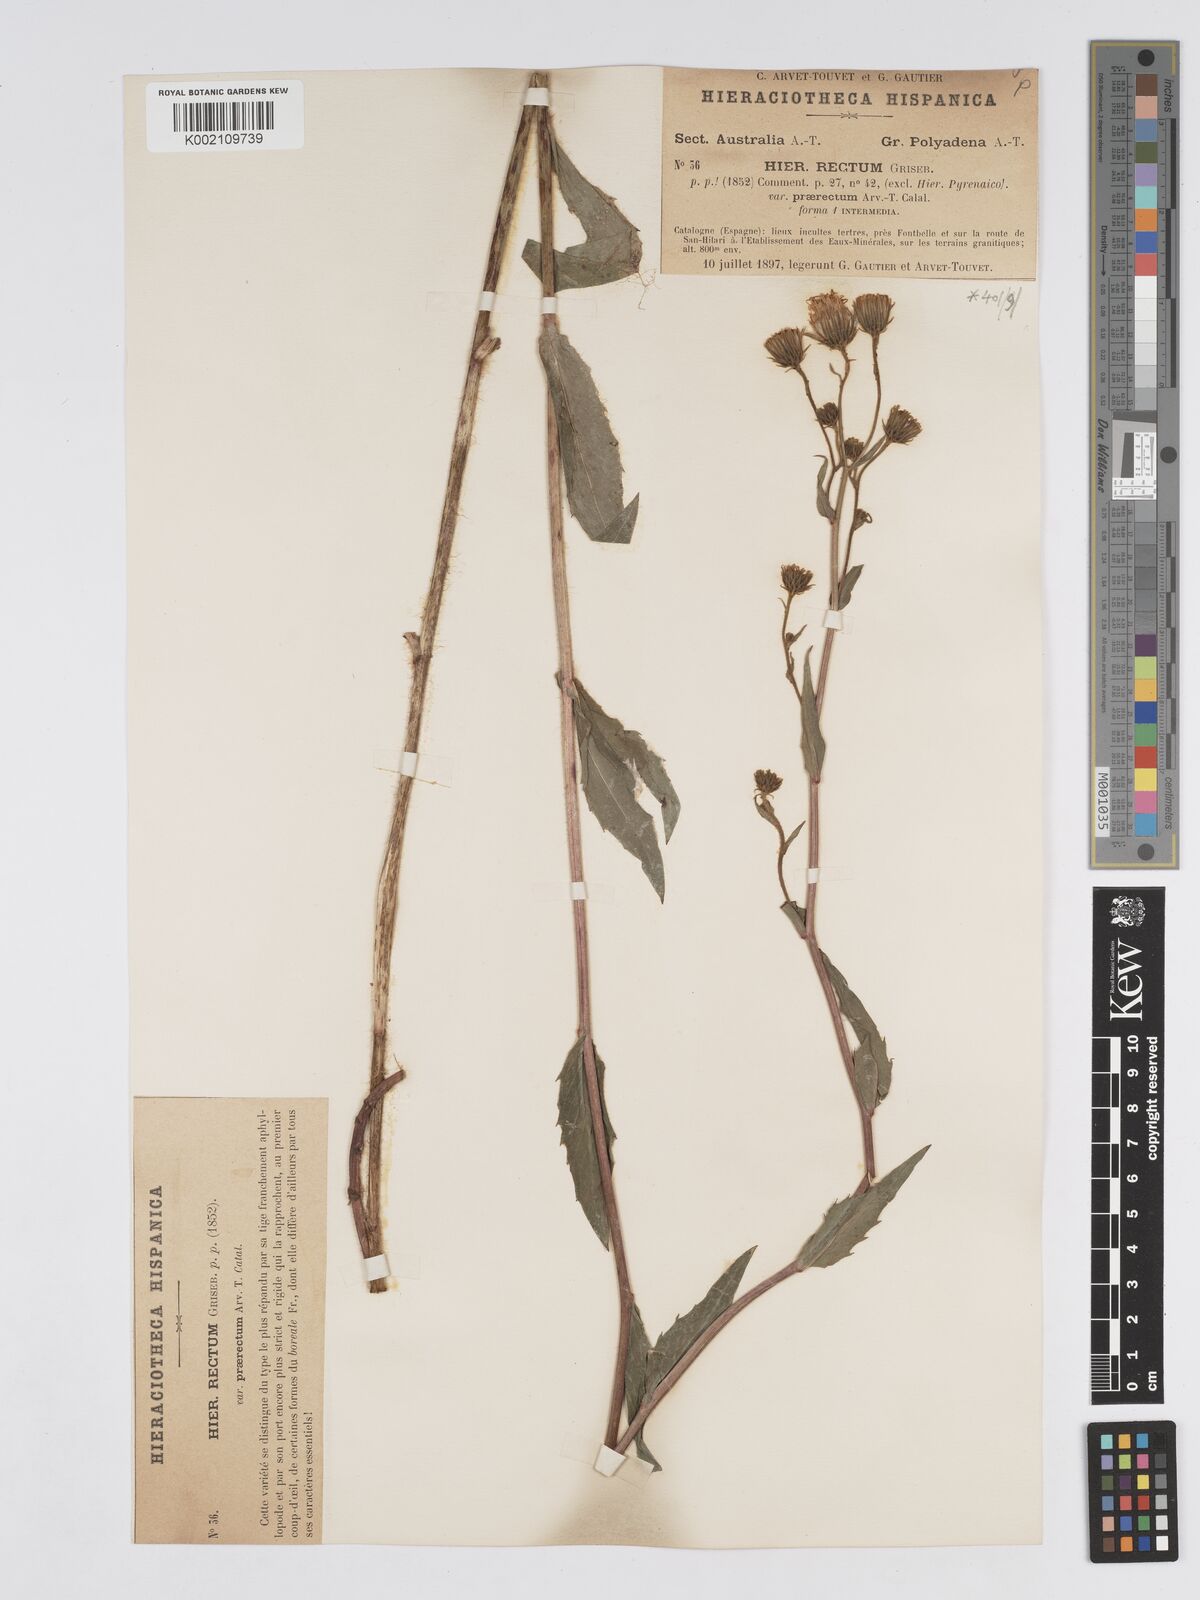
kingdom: Plantae
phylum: Tracheophyta
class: Magnoliopsida
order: Asterales
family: Asteraceae
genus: Hieracium
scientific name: Hieracium
